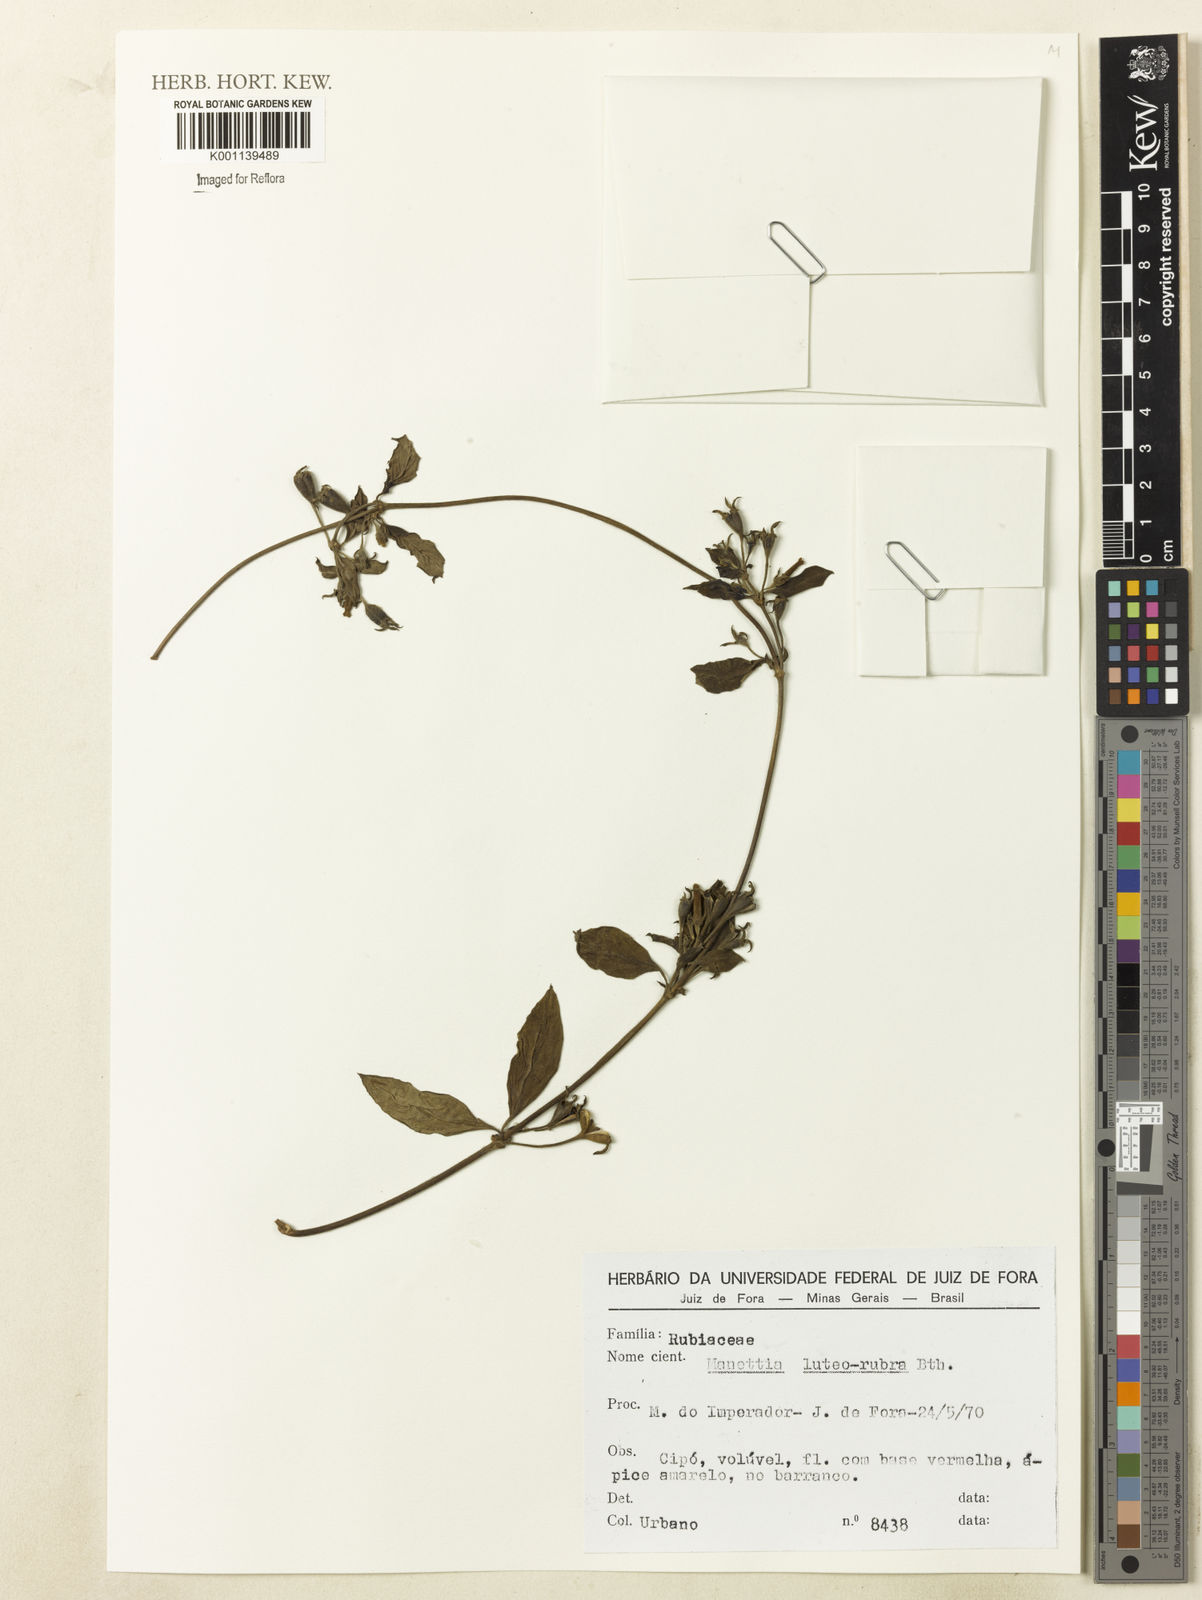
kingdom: Plantae
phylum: Tracheophyta
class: Magnoliopsida
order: Gentianales
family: Rubiaceae
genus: Manettia
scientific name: Manettia luteorubra
